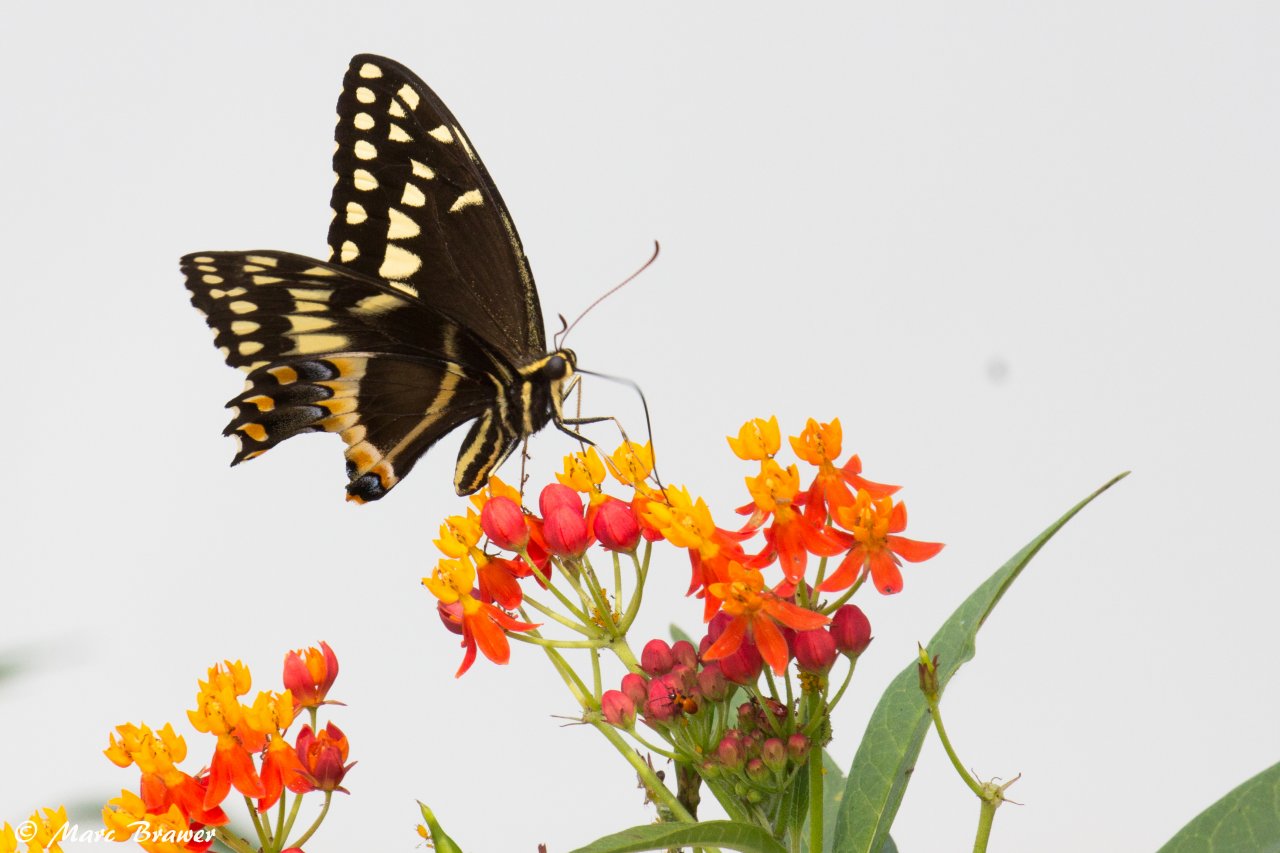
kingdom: Animalia
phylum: Arthropoda
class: Insecta
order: Lepidoptera
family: Papilionidae
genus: Pterourus
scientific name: Pterourus palamedes
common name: Palamedes Swallowtail
